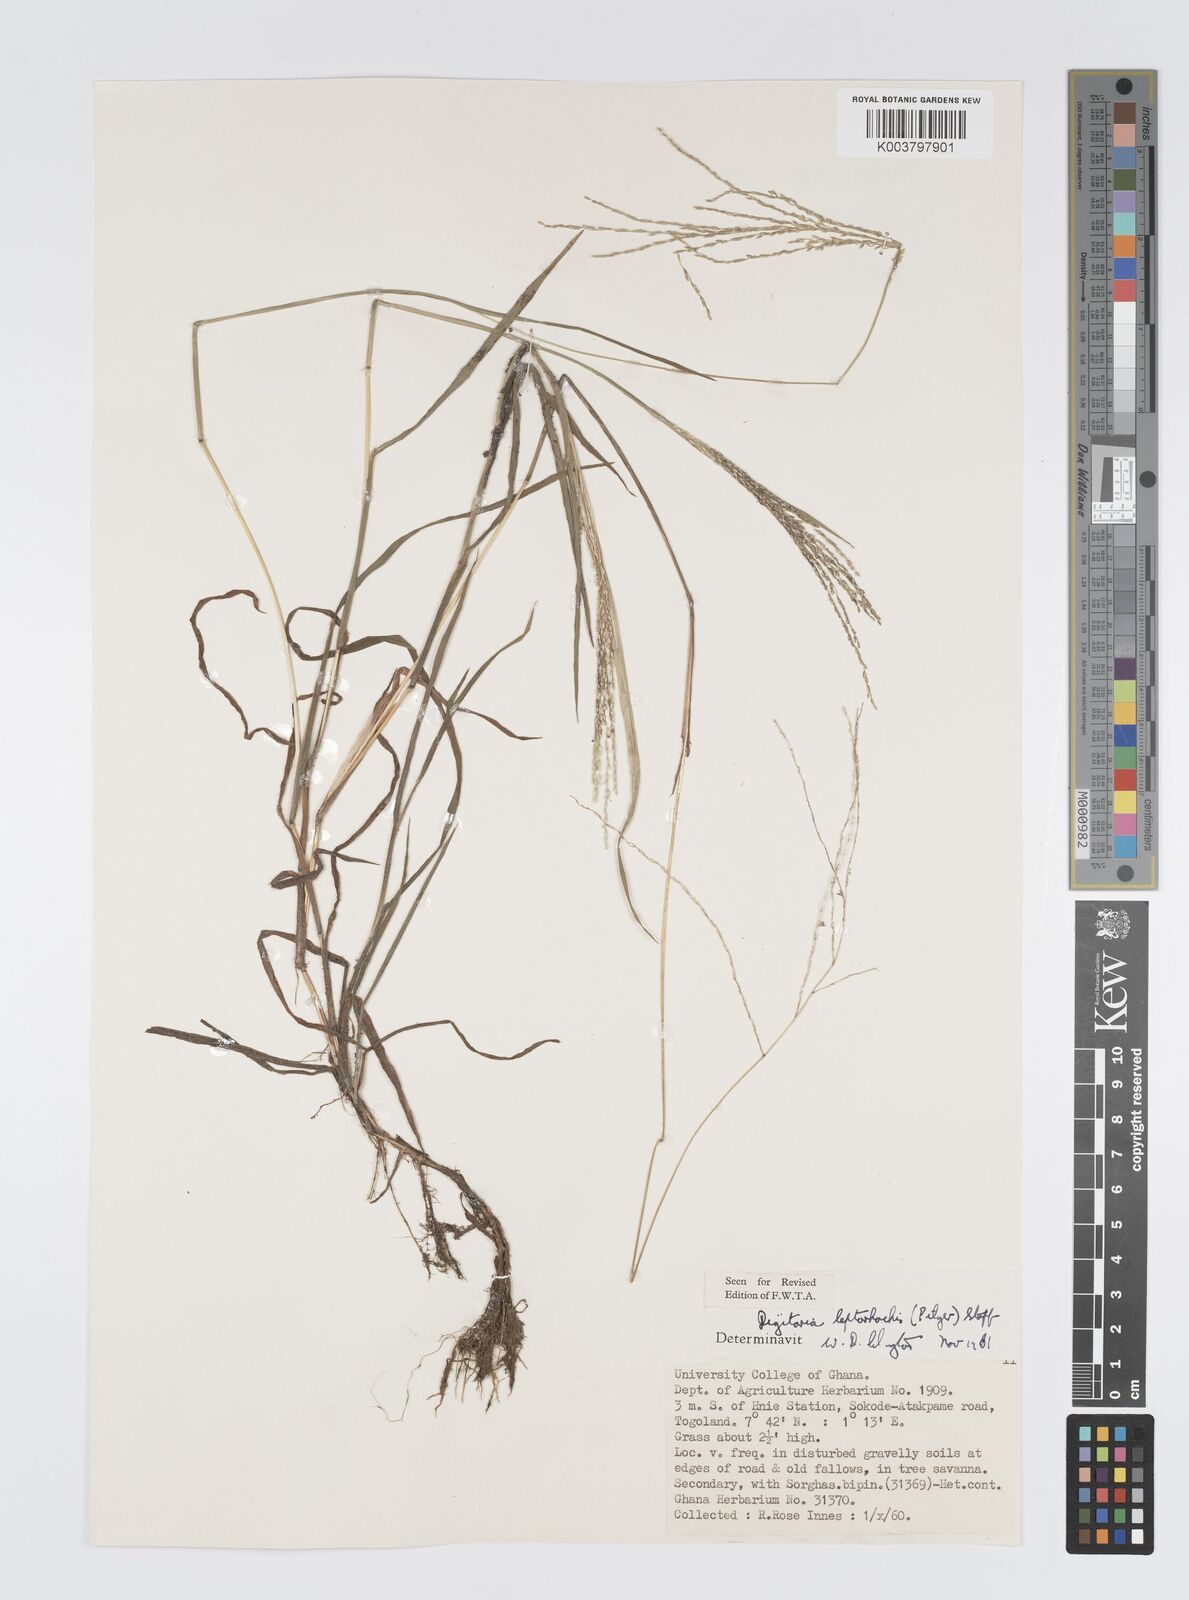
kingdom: Plantae
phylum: Tracheophyta
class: Liliopsida
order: Poales
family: Poaceae
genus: Digitaria
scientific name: Digitaria leptorhachis
